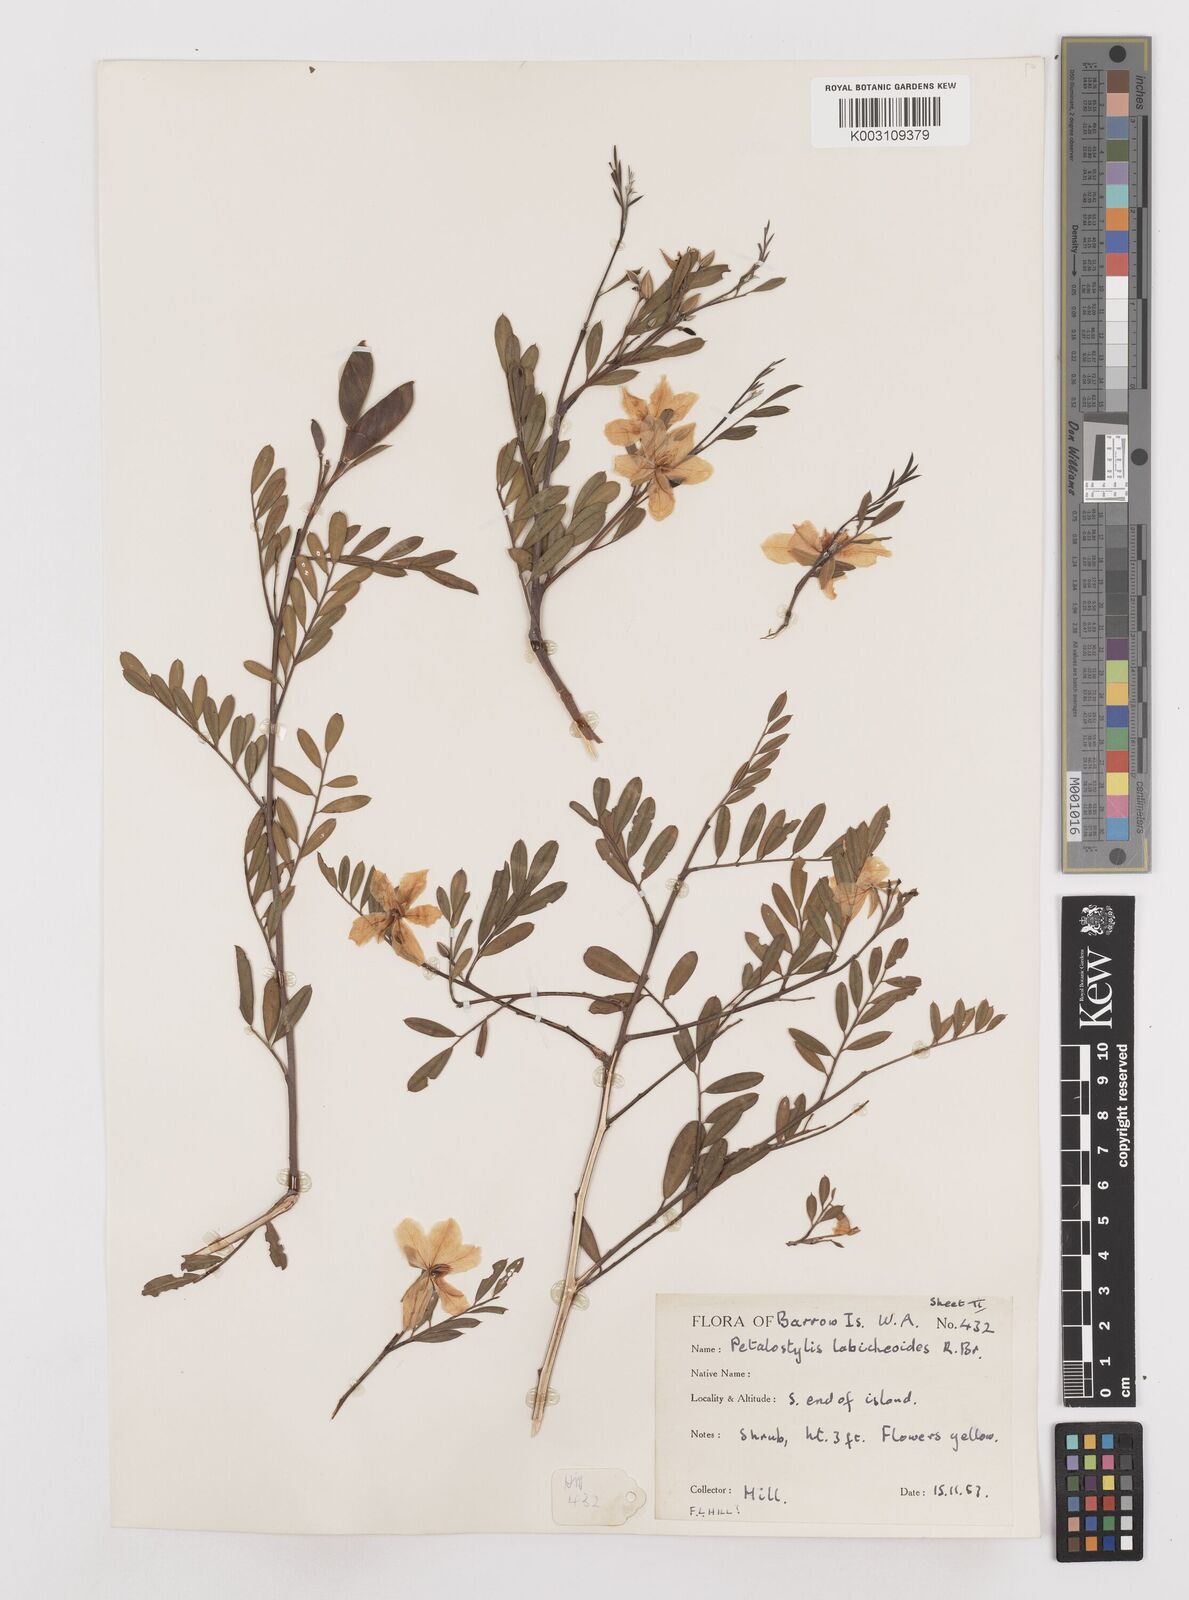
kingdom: Plantae
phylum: Tracheophyta
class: Magnoliopsida
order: Fabales
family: Fabaceae
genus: Petalostylis
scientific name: Petalostylis labicheoides
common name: Butterfly bush
